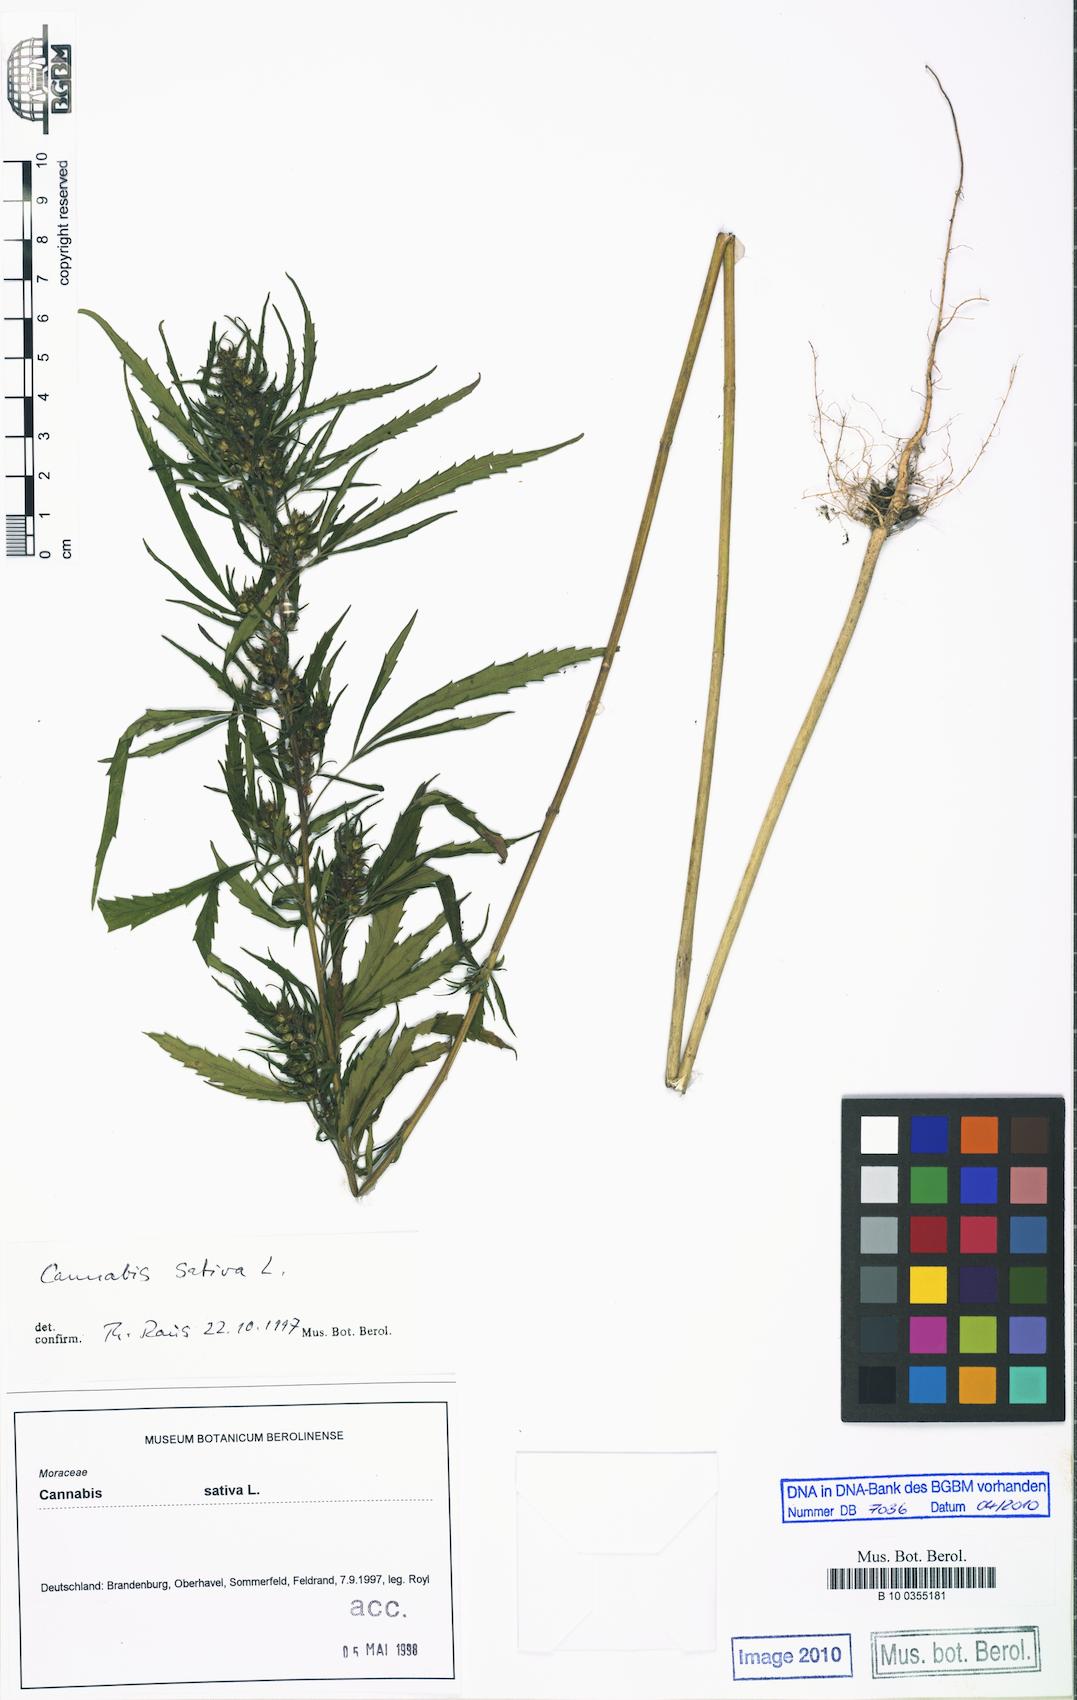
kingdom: Plantae
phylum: Tracheophyta
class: Magnoliopsida
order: Rosales
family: Cannabaceae
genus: Cannabis
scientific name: Cannabis sativa
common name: Hemp
